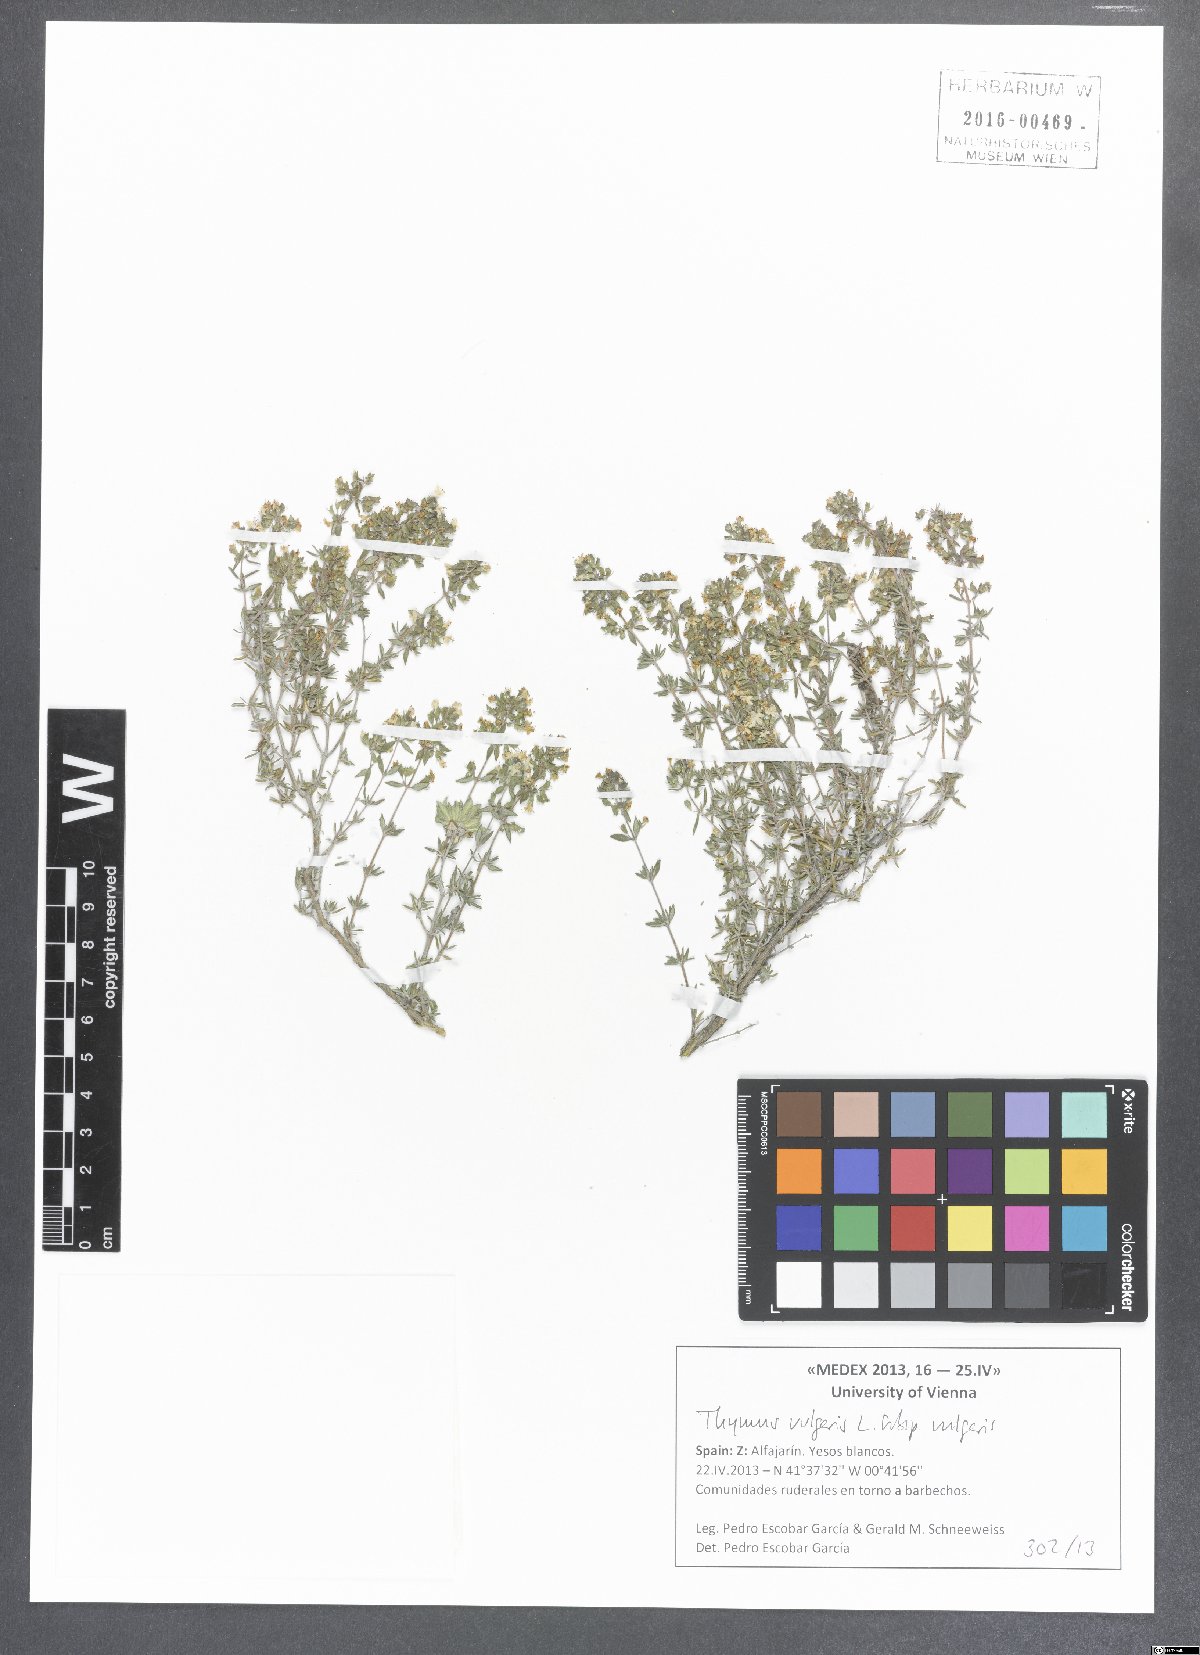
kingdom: Plantae
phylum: Tracheophyta
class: Magnoliopsida
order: Lamiales
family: Lamiaceae
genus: Thymus
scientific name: Thymus vulgaris
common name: Garden thyme
